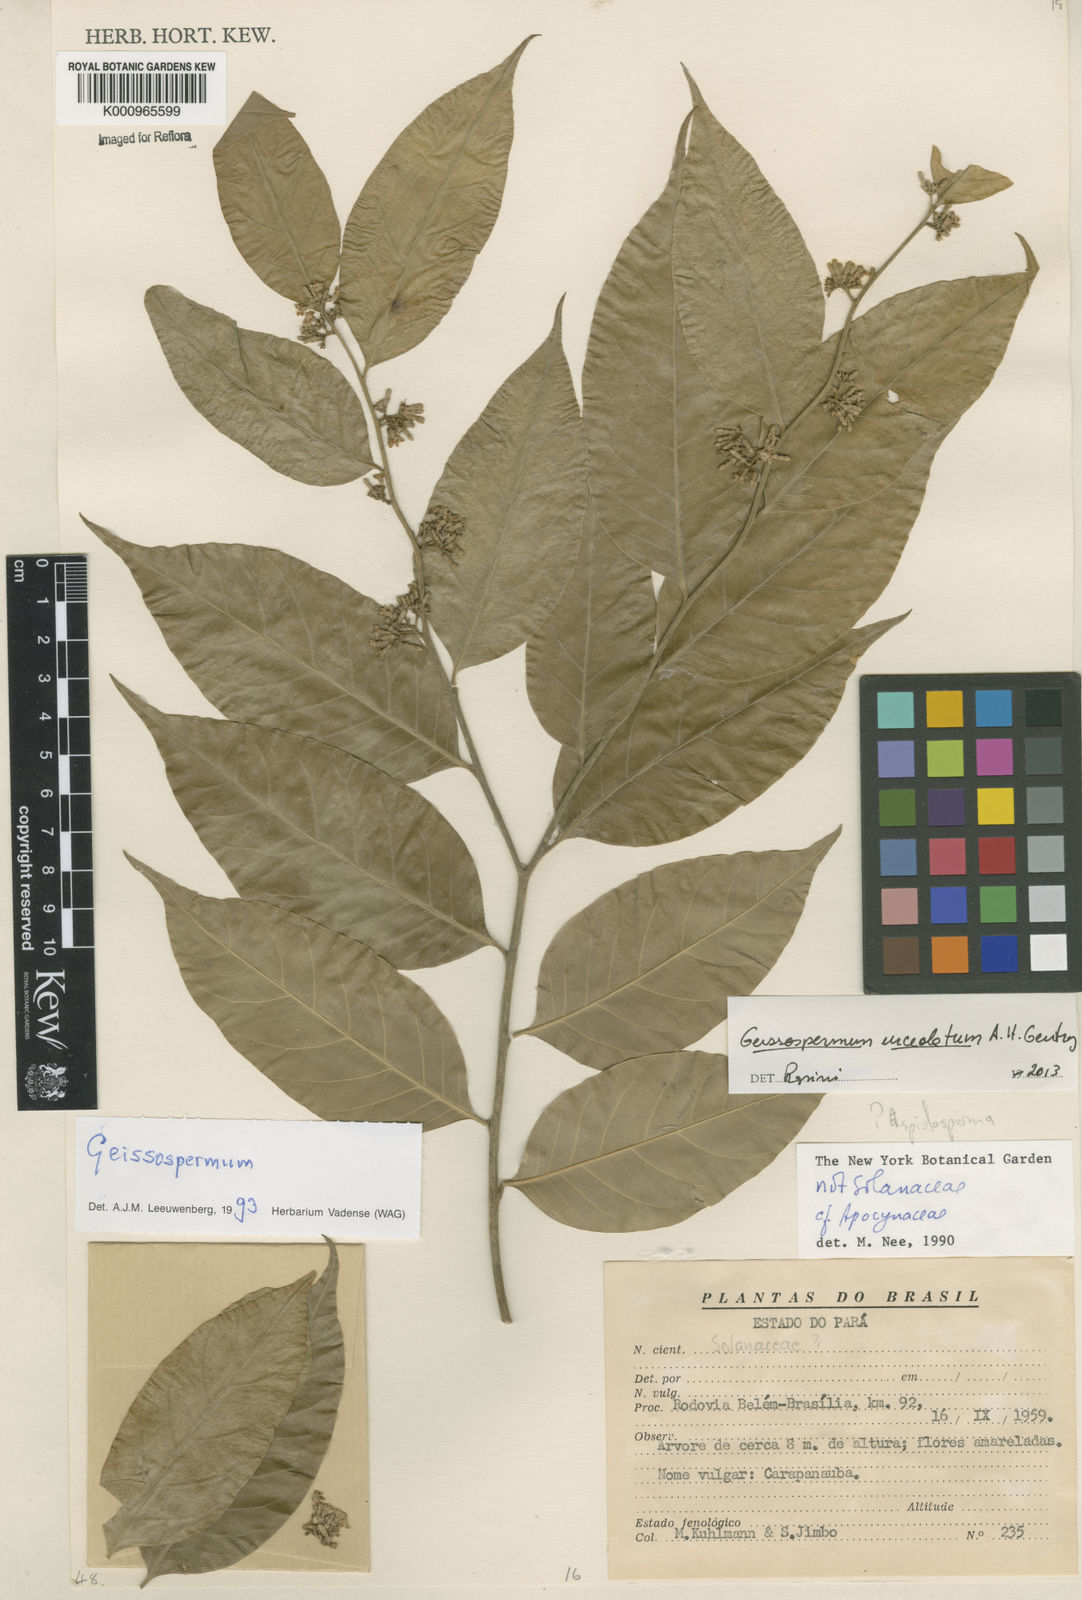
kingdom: Plantae
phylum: Tracheophyta
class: Magnoliopsida
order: Gentianales
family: Apocynaceae
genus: Geissospermum
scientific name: Geissospermum urceolatum
